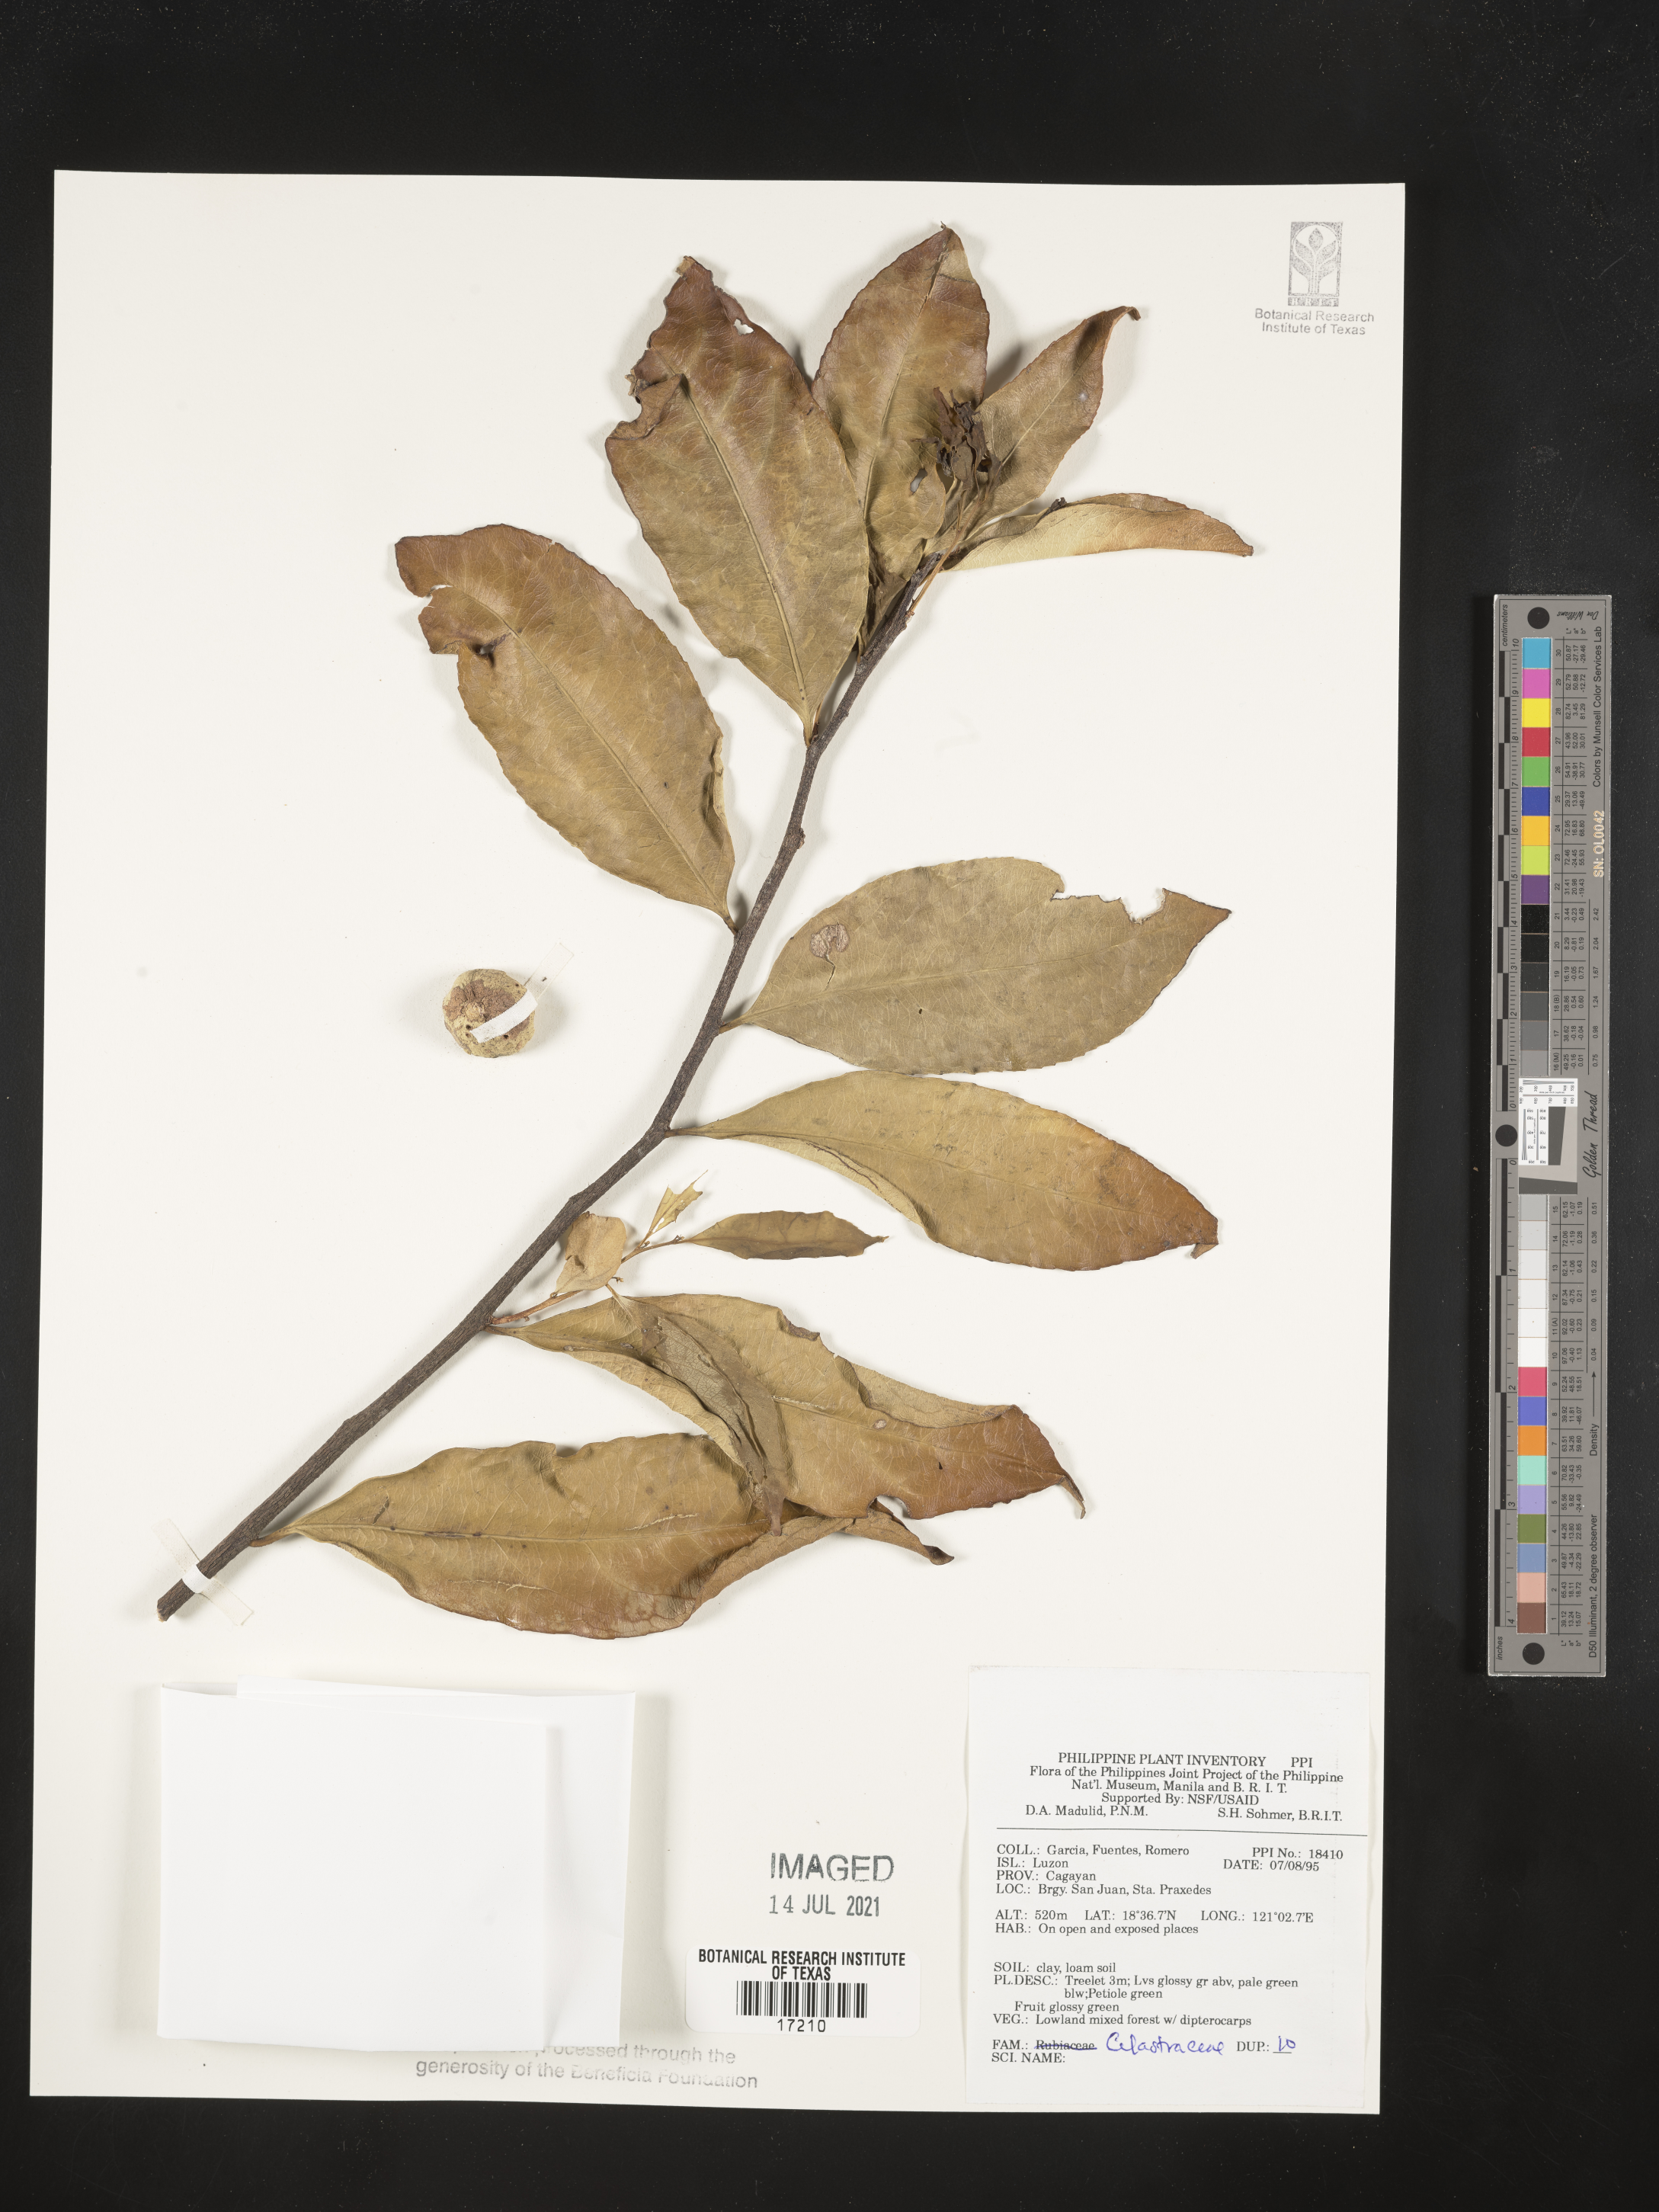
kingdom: Plantae
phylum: Tracheophyta
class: Magnoliopsida
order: Celastrales
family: Celastraceae
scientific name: Celastraceae
